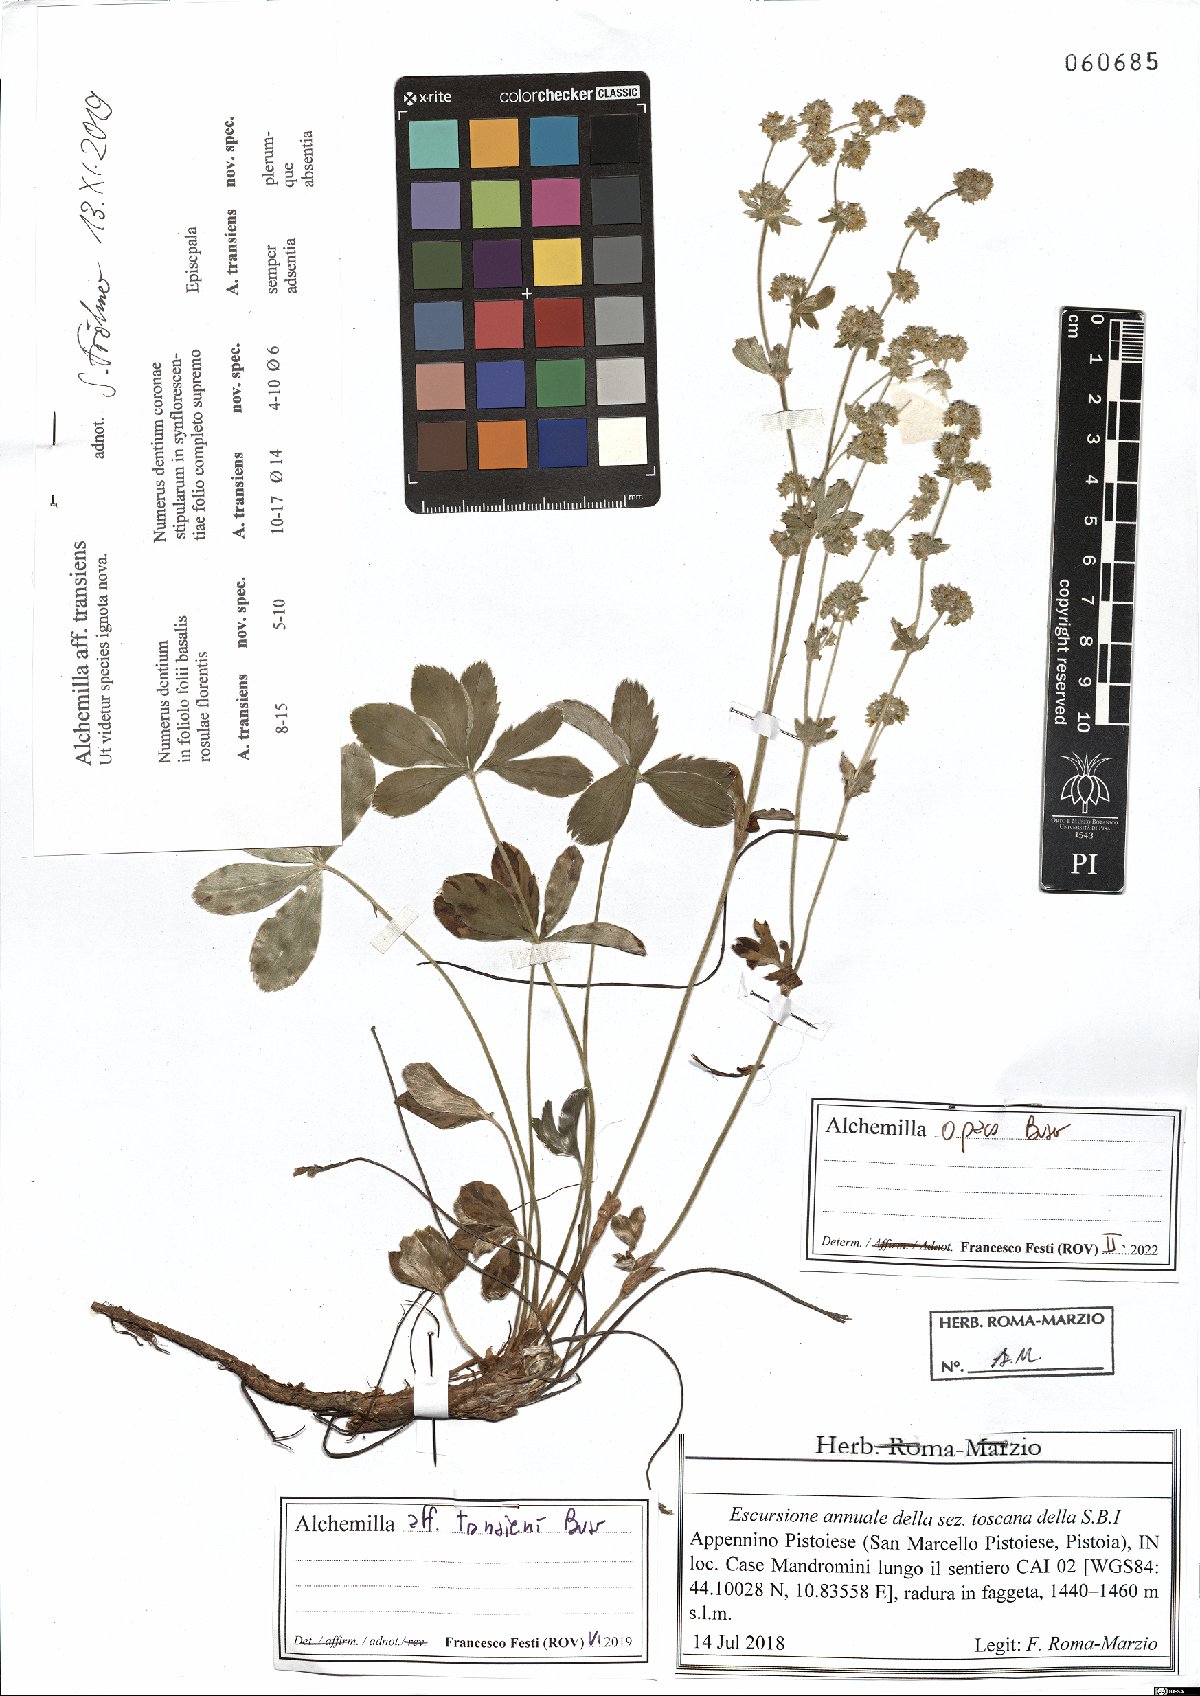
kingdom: Plantae
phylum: Tracheophyta
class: Magnoliopsida
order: Rosales
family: Rosaceae
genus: Alchemilla
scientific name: Alchemilla opaca
